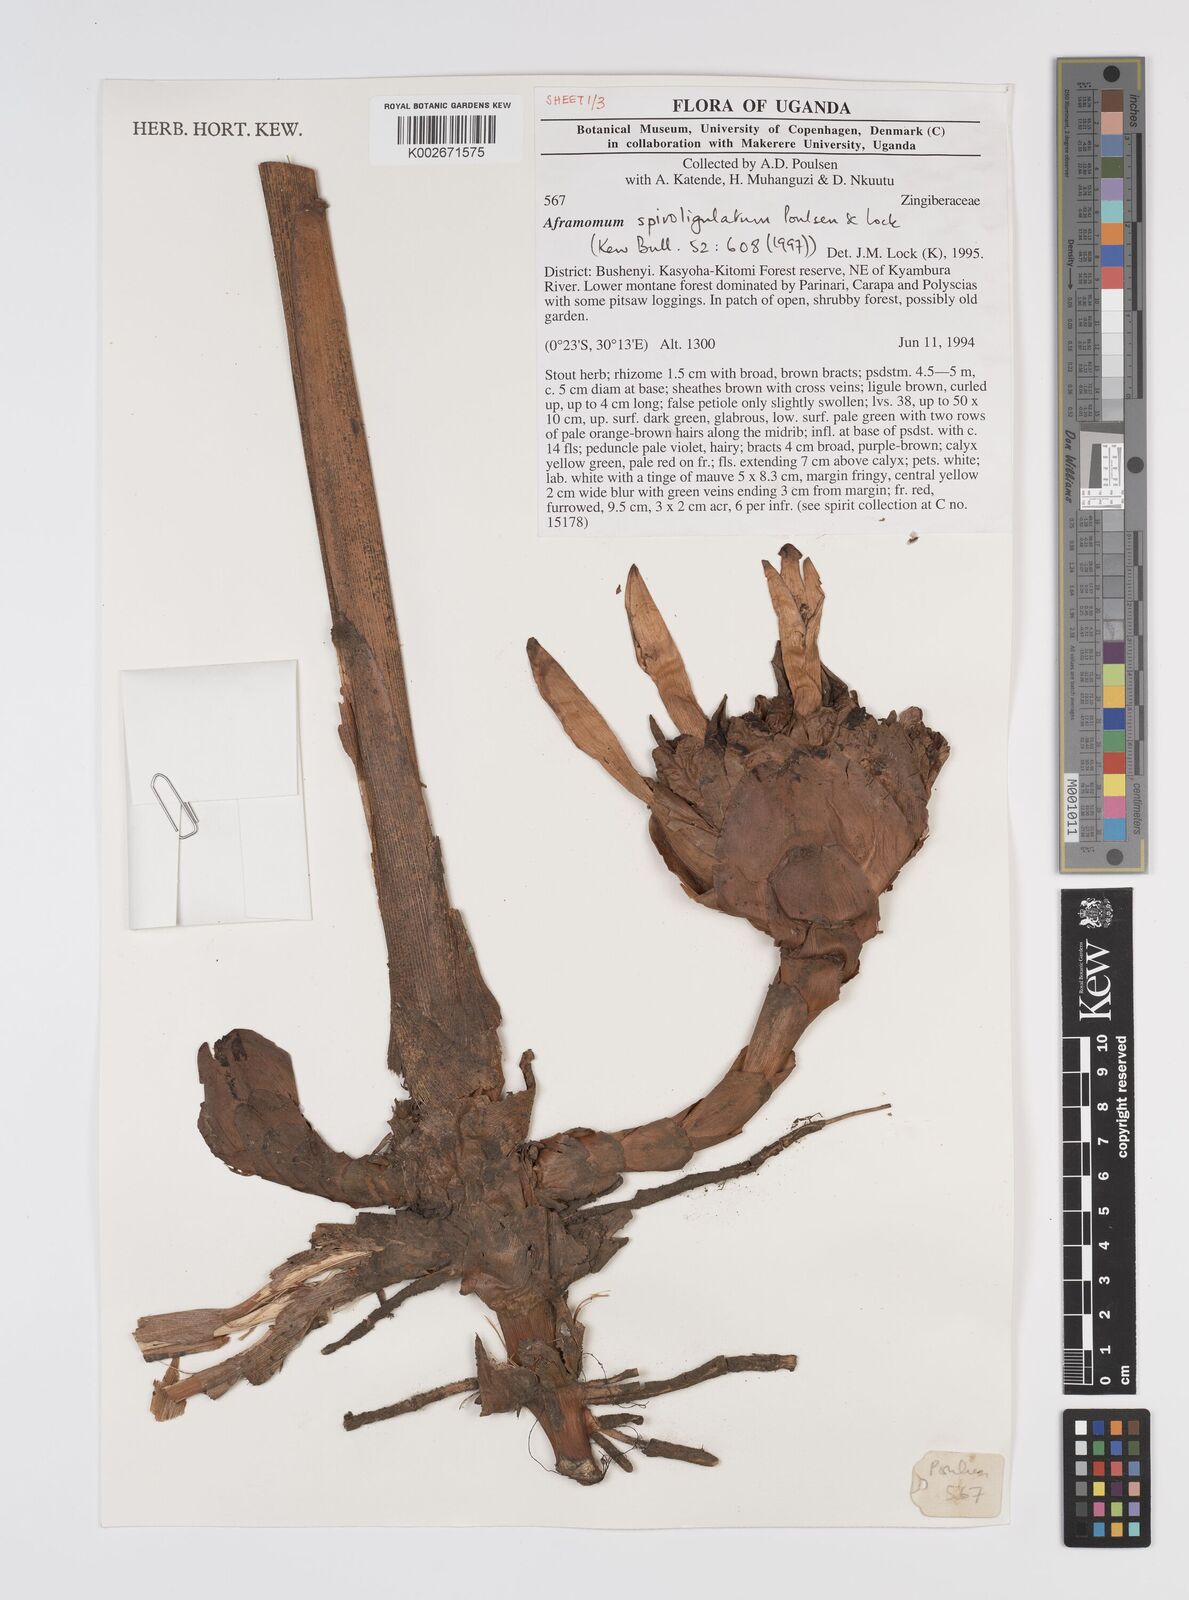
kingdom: Plantae
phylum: Tracheophyta
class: Liliopsida
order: Zingiberales
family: Zingiberaceae
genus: Aframomum
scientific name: Aframomum spiroligulatum
